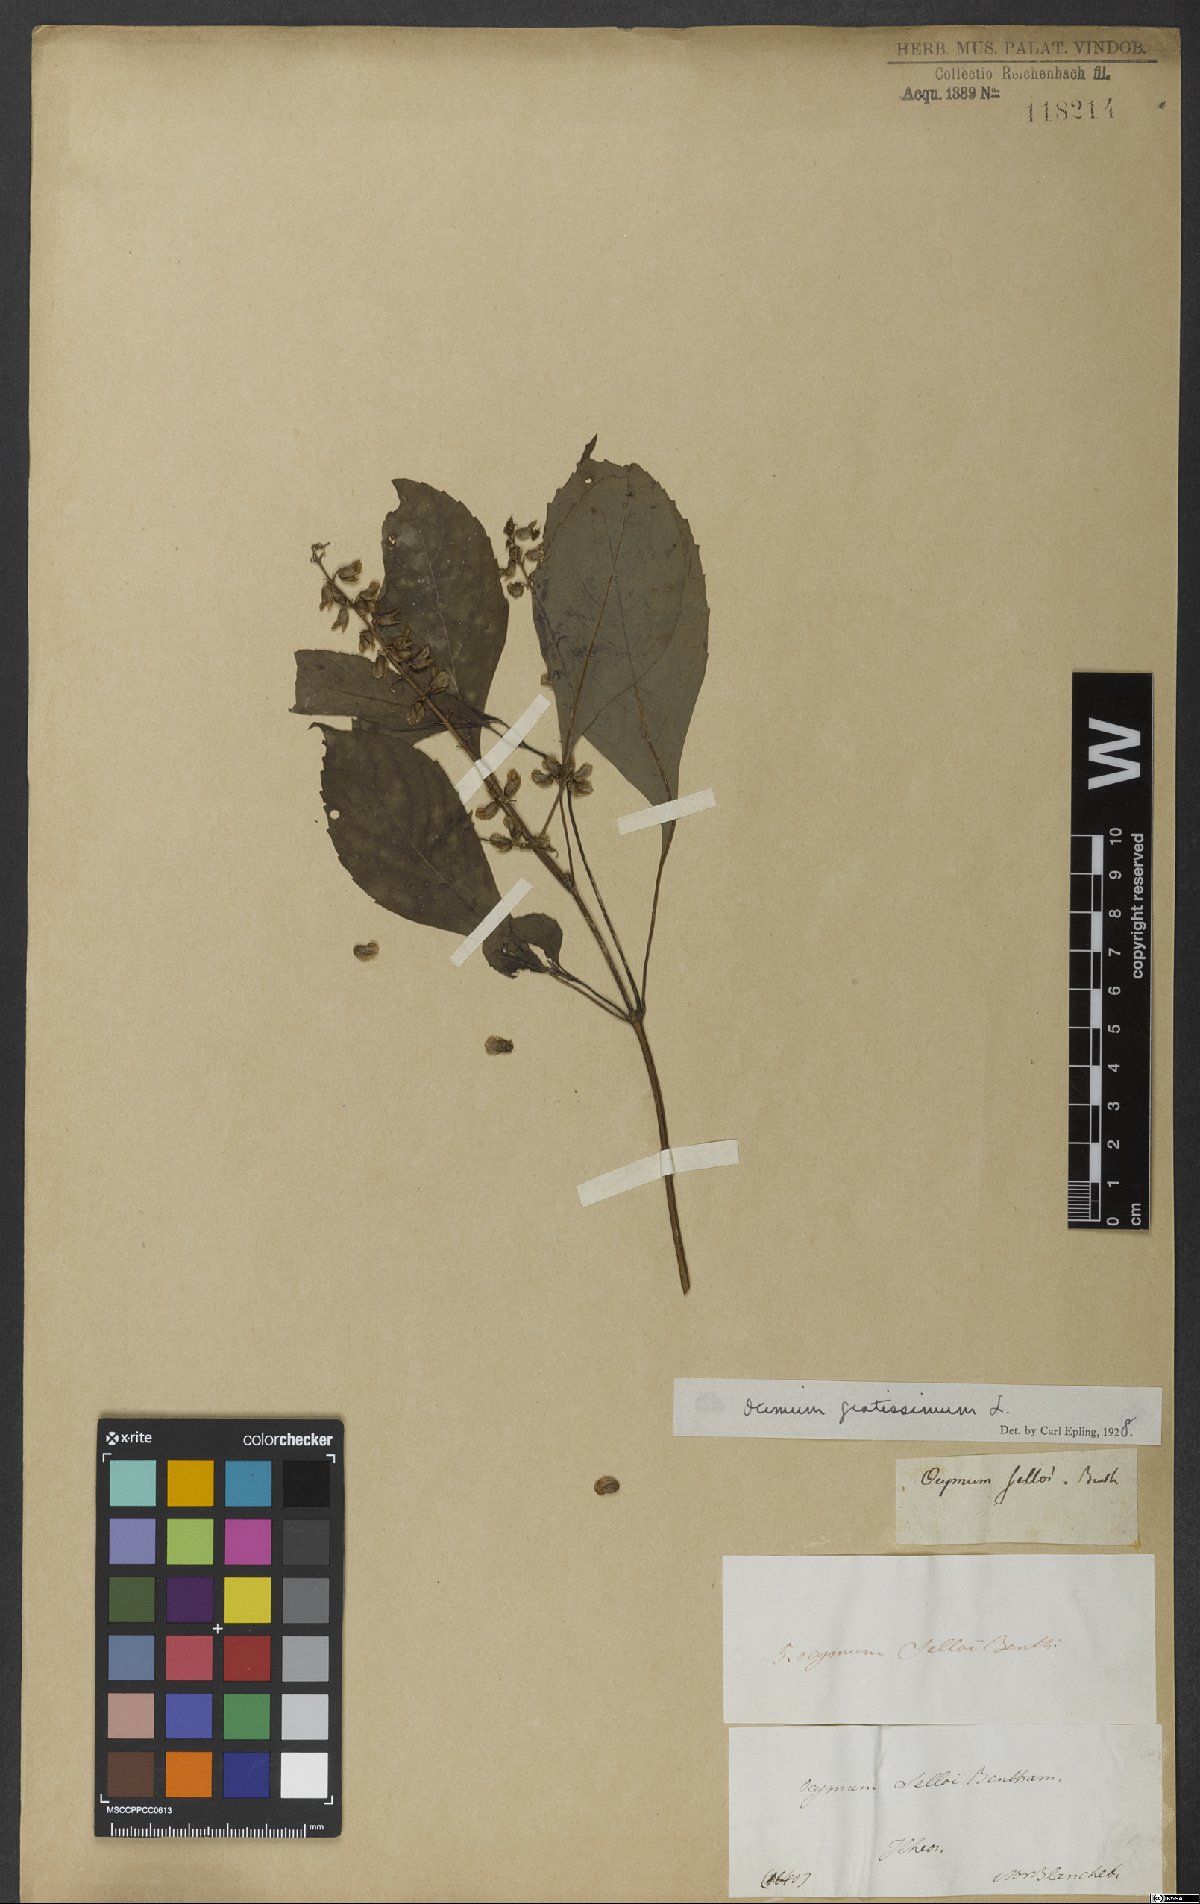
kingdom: Plantae
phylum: Tracheophyta
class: Magnoliopsida
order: Lamiales
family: Lamiaceae
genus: Ocimum
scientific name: Ocimum gratissimum
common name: African basil
